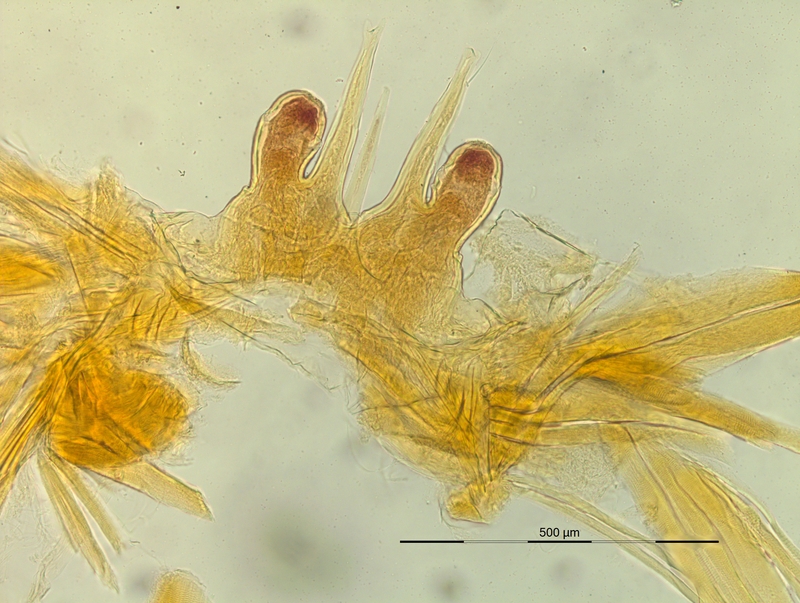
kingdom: Animalia
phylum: Arthropoda
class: Diplopoda
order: Chordeumatida
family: Craspedosomatidae
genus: Macheiriophoron
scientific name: Macheiriophoron verhoeffi
